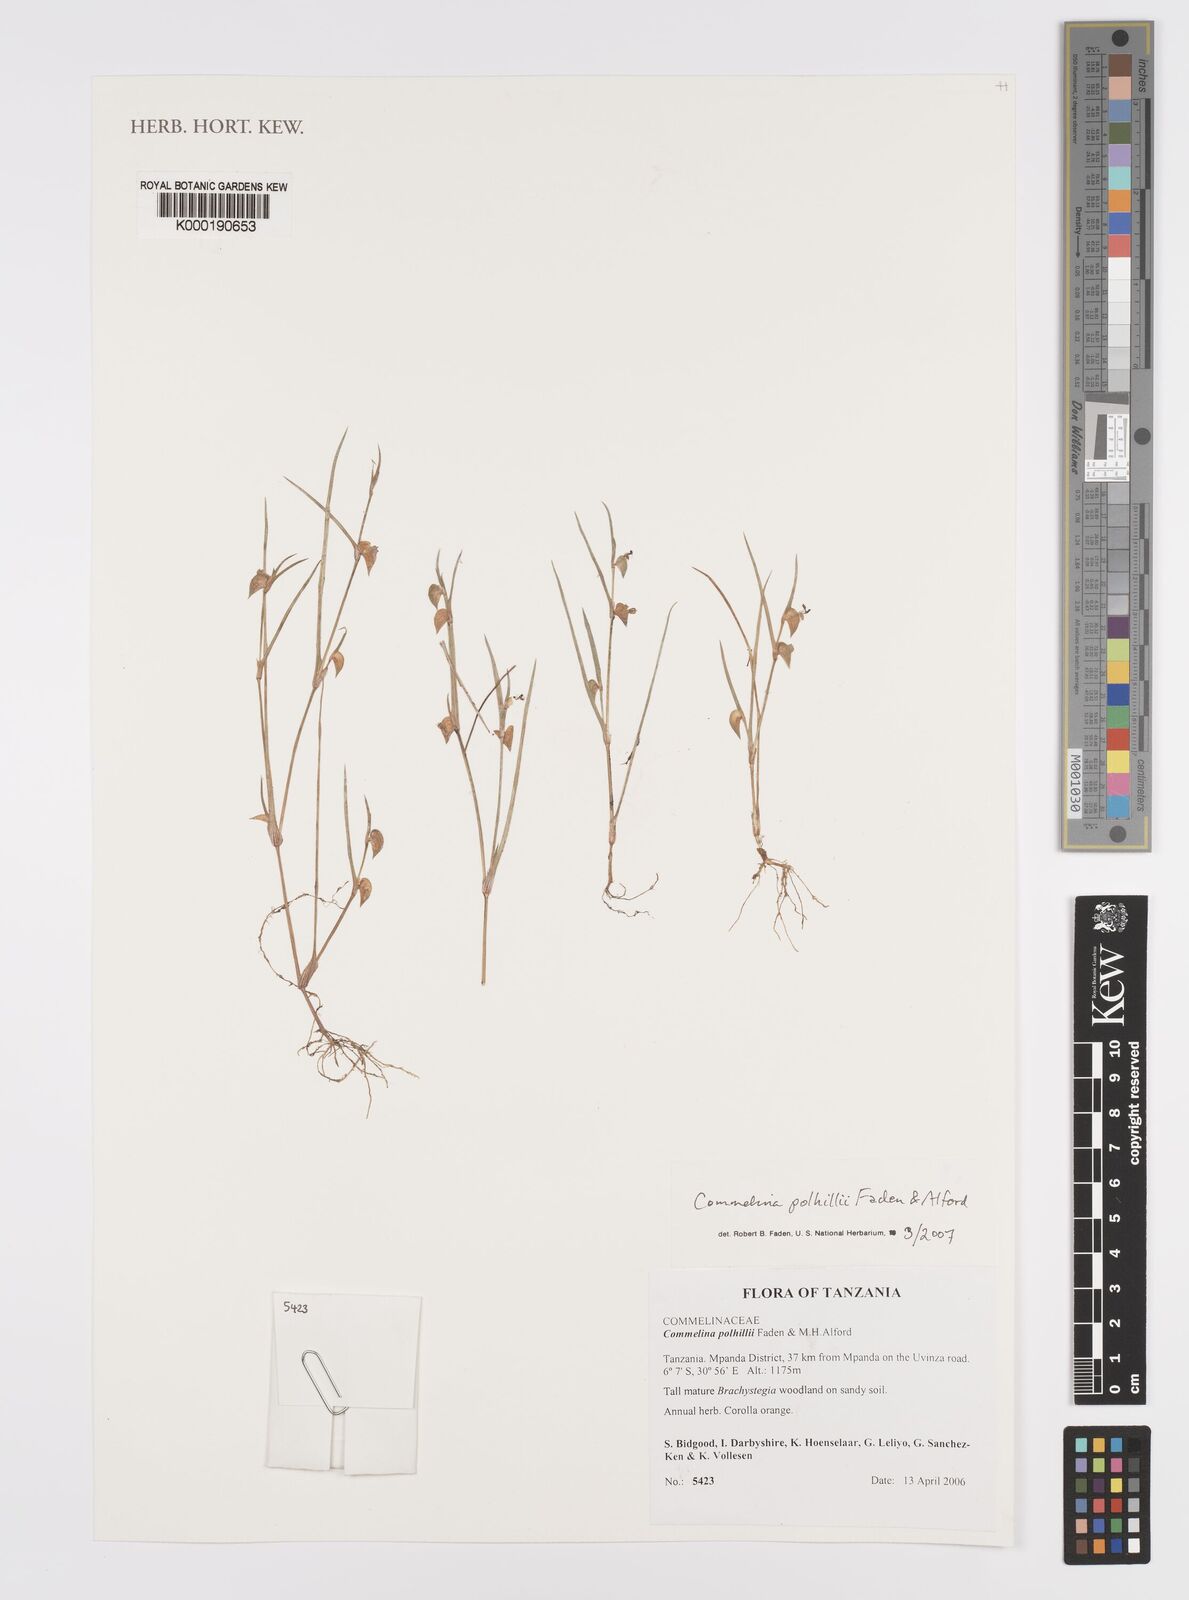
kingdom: Plantae
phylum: Tracheophyta
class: Liliopsida
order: Commelinales
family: Commelinaceae
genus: Commelina
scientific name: Commelina polhillii
